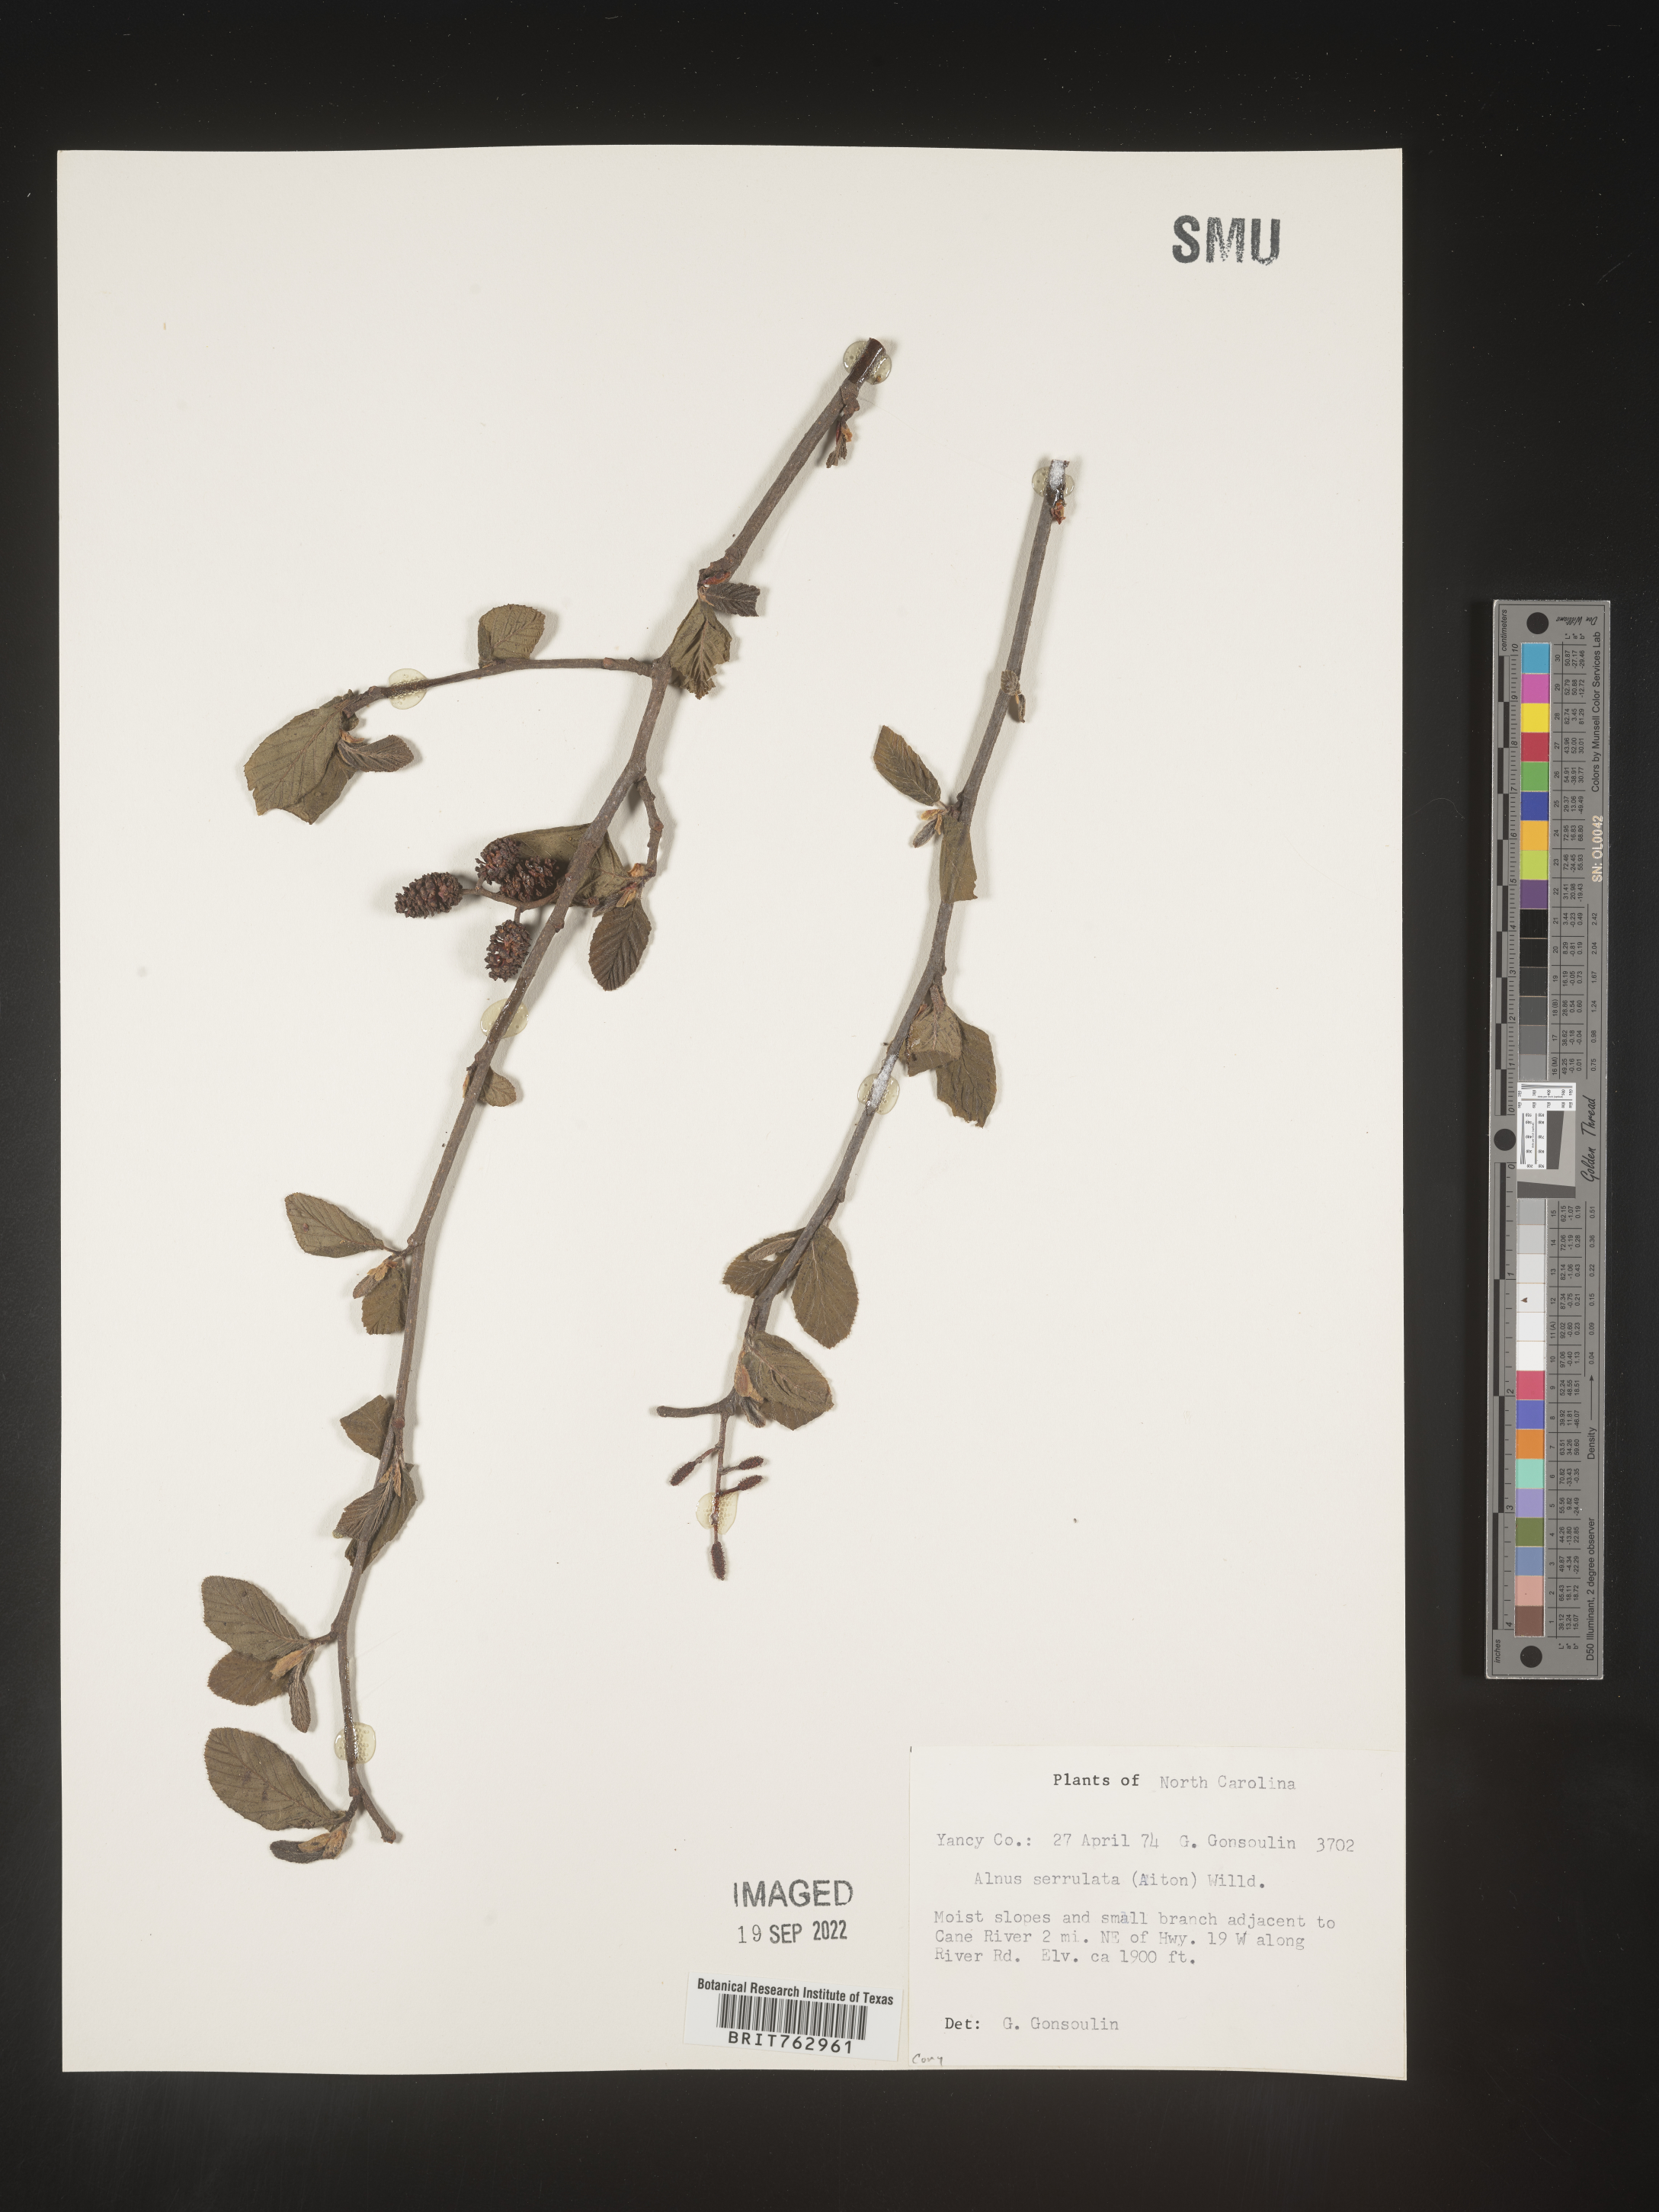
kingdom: Plantae
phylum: Tracheophyta
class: Magnoliopsida
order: Fagales
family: Betulaceae
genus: Alnus
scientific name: Alnus serrulata
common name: Hazel alder
